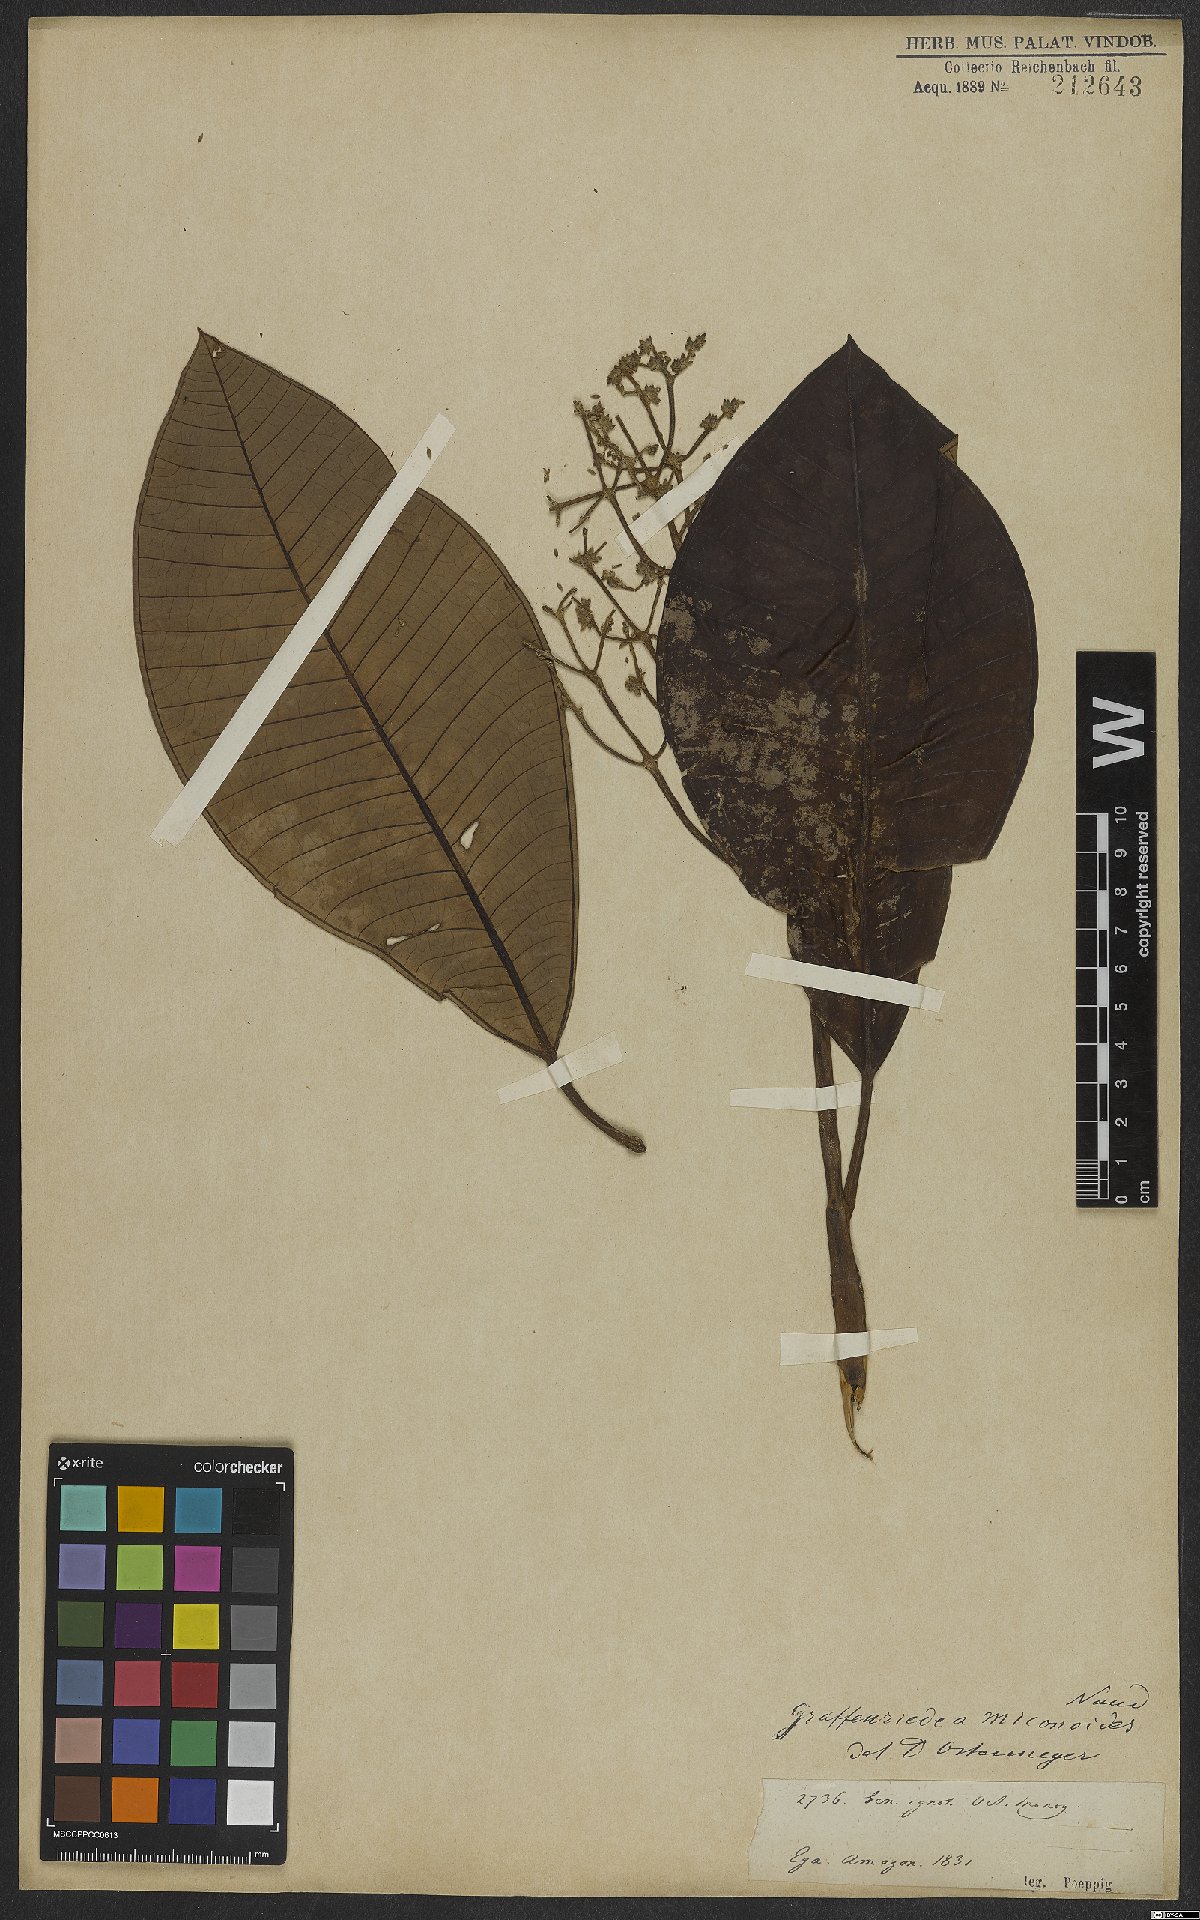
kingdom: Plantae
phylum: Tracheophyta
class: Magnoliopsida
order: Myrtales
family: Melastomataceae
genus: Graffenrieda
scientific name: Graffenrieda miconioides
